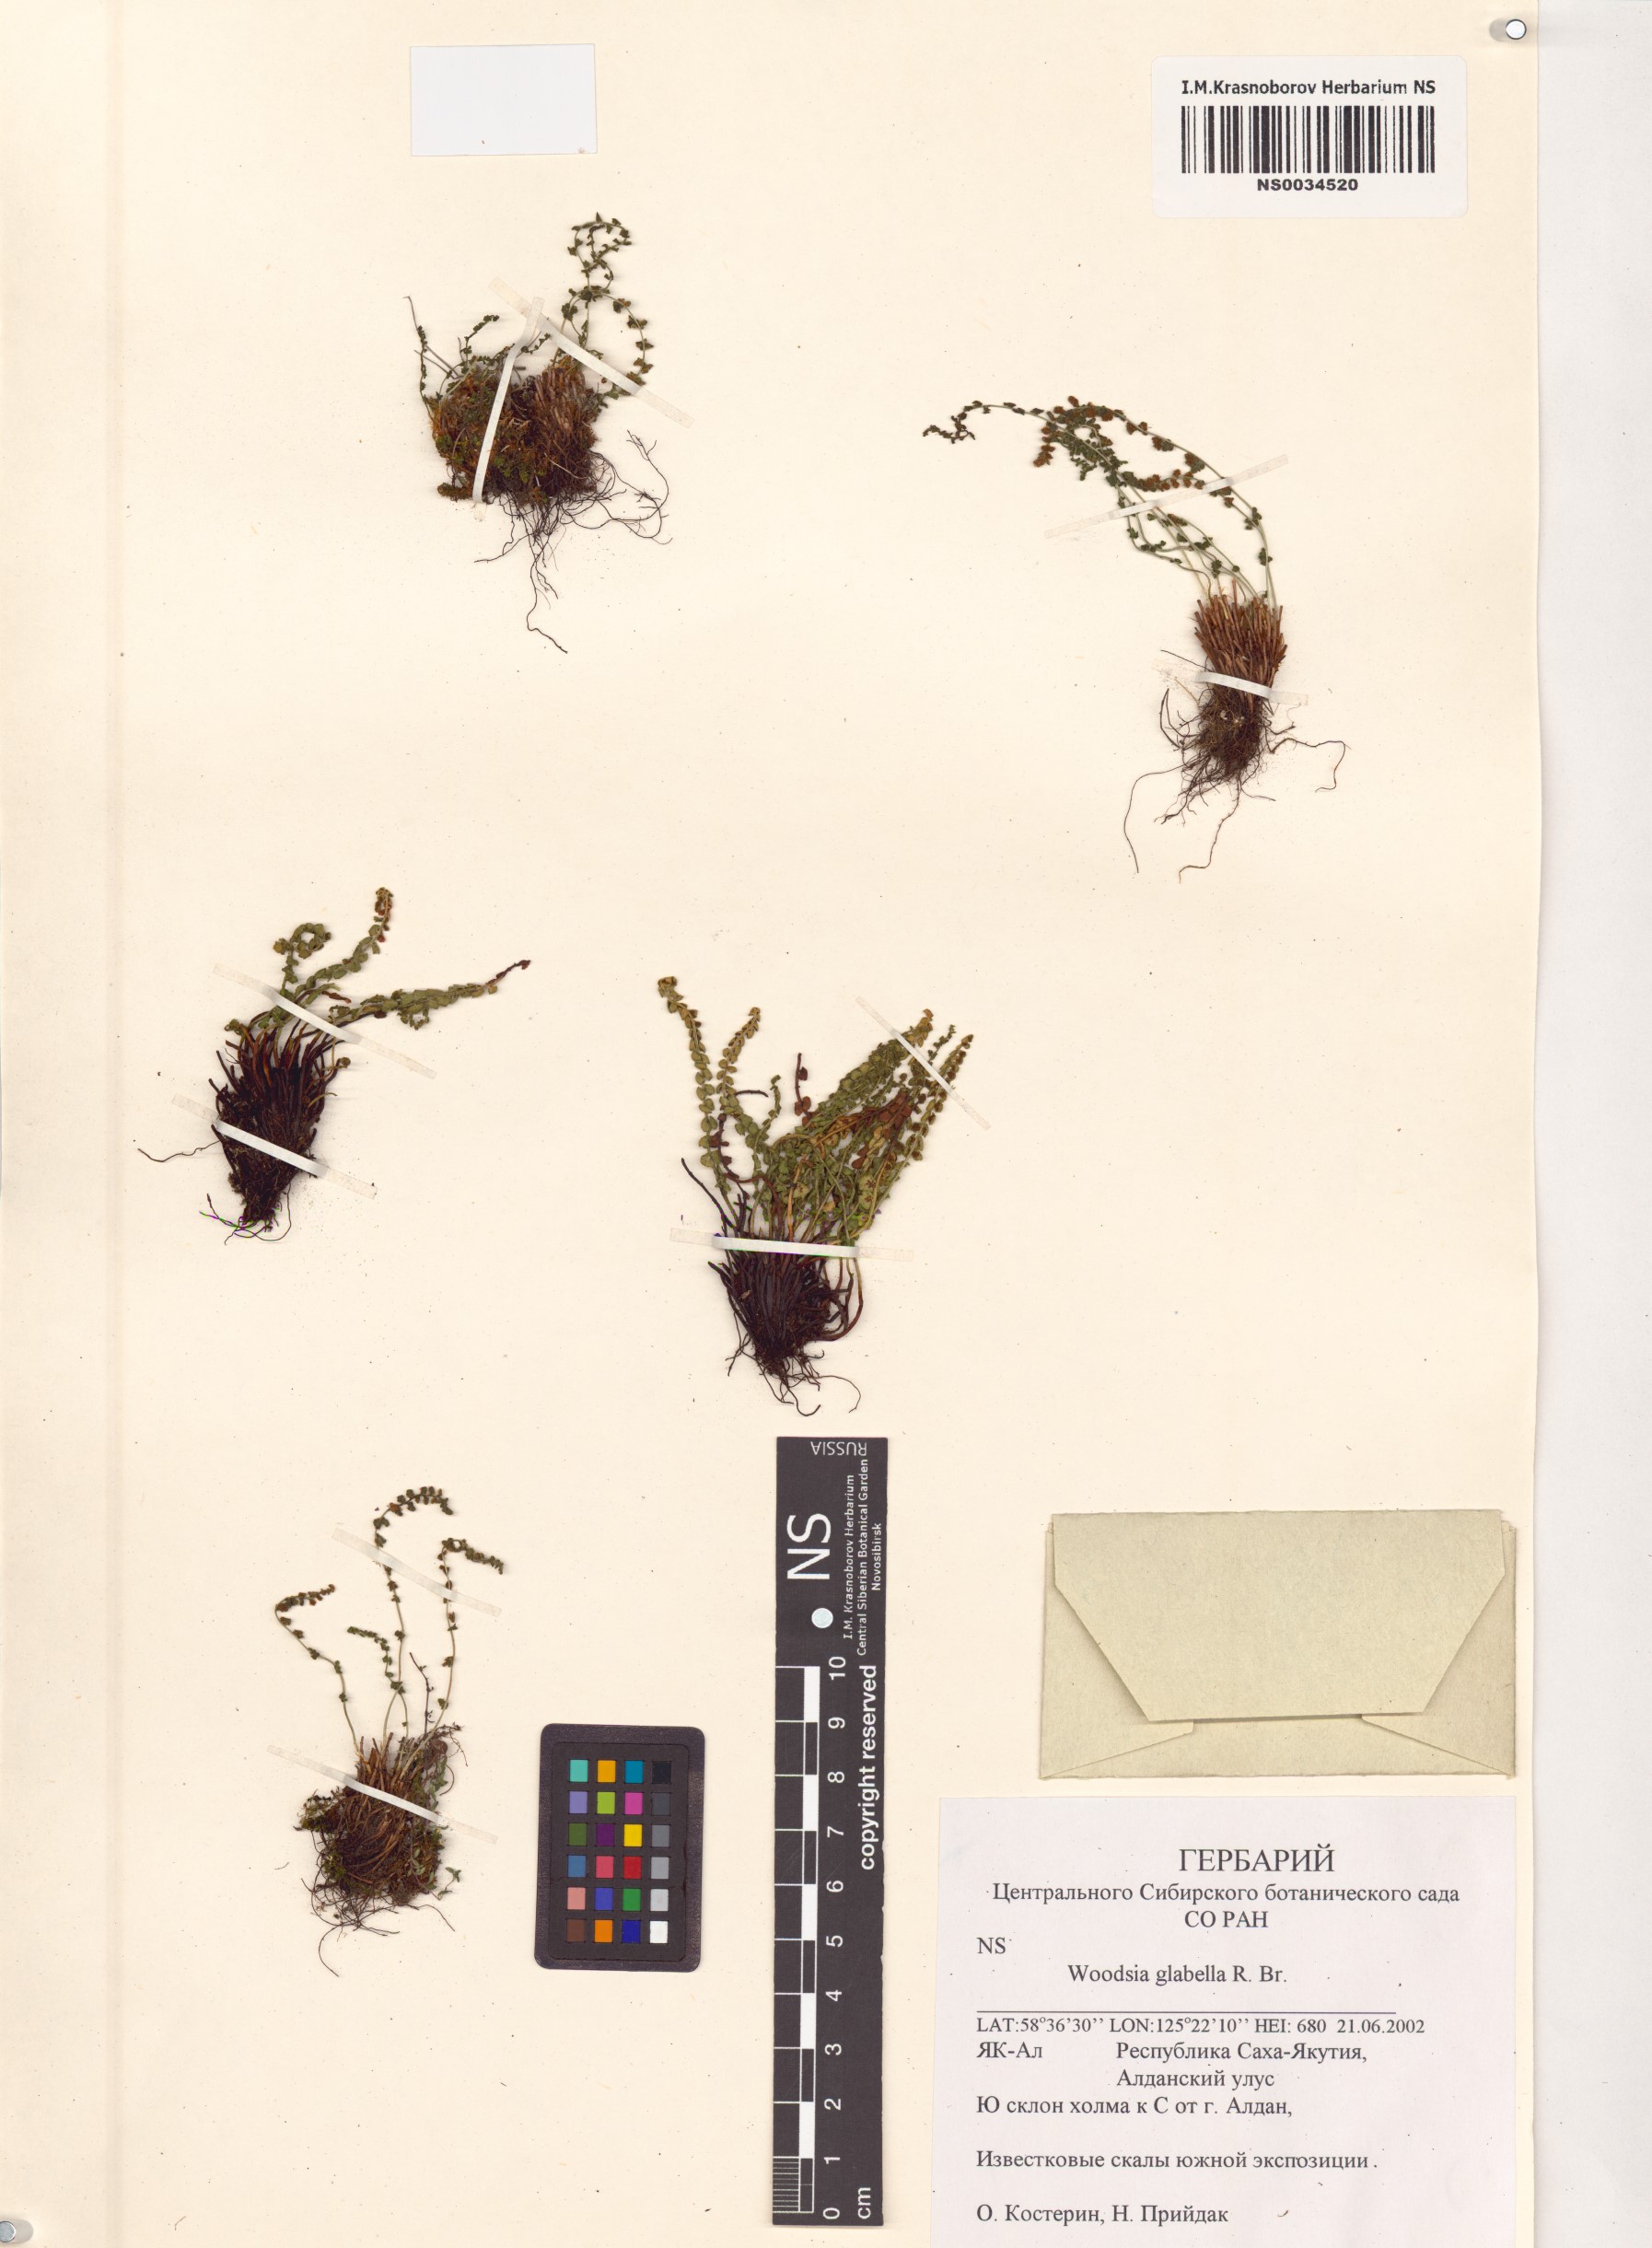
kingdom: Plantae
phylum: Tracheophyta
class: Polypodiopsida
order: Polypodiales
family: Woodsiaceae
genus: Woodsia
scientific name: Woodsia glabella
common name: Smooth woodsia
